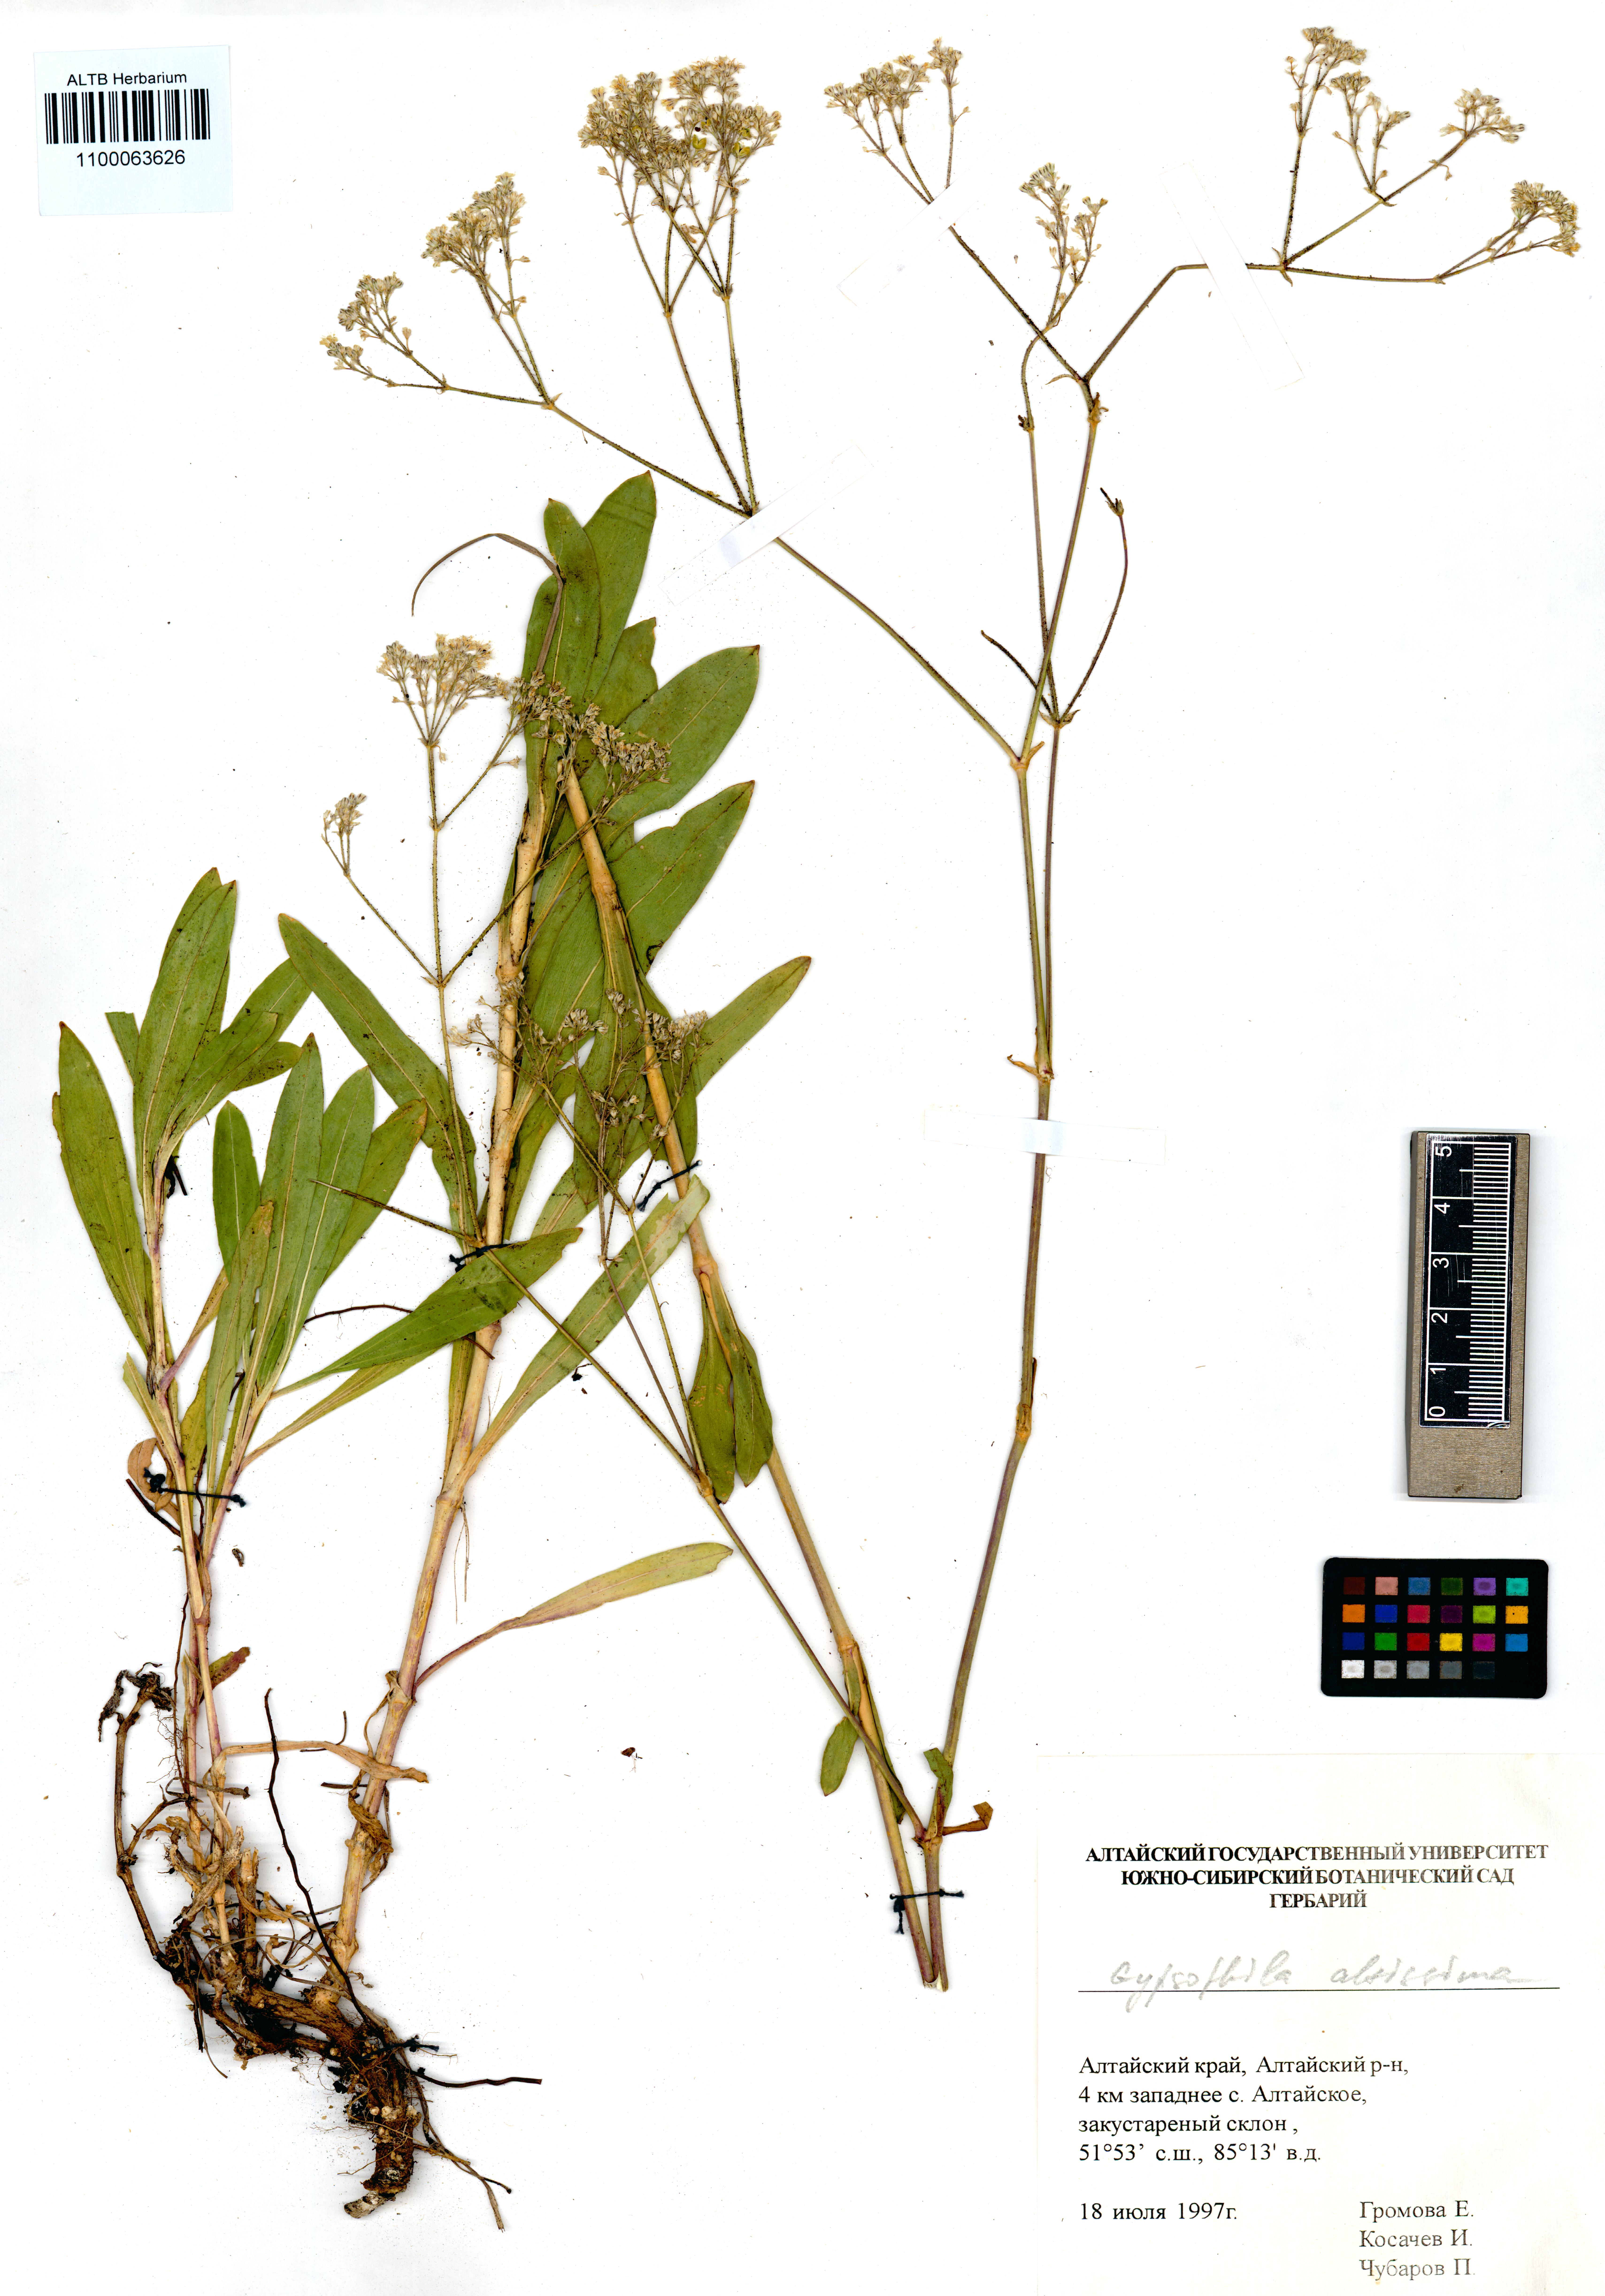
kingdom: Plantae
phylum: Tracheophyta
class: Magnoliopsida
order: Caryophyllales
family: Caryophyllaceae
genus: Gypsophila
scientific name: Gypsophila altissima
